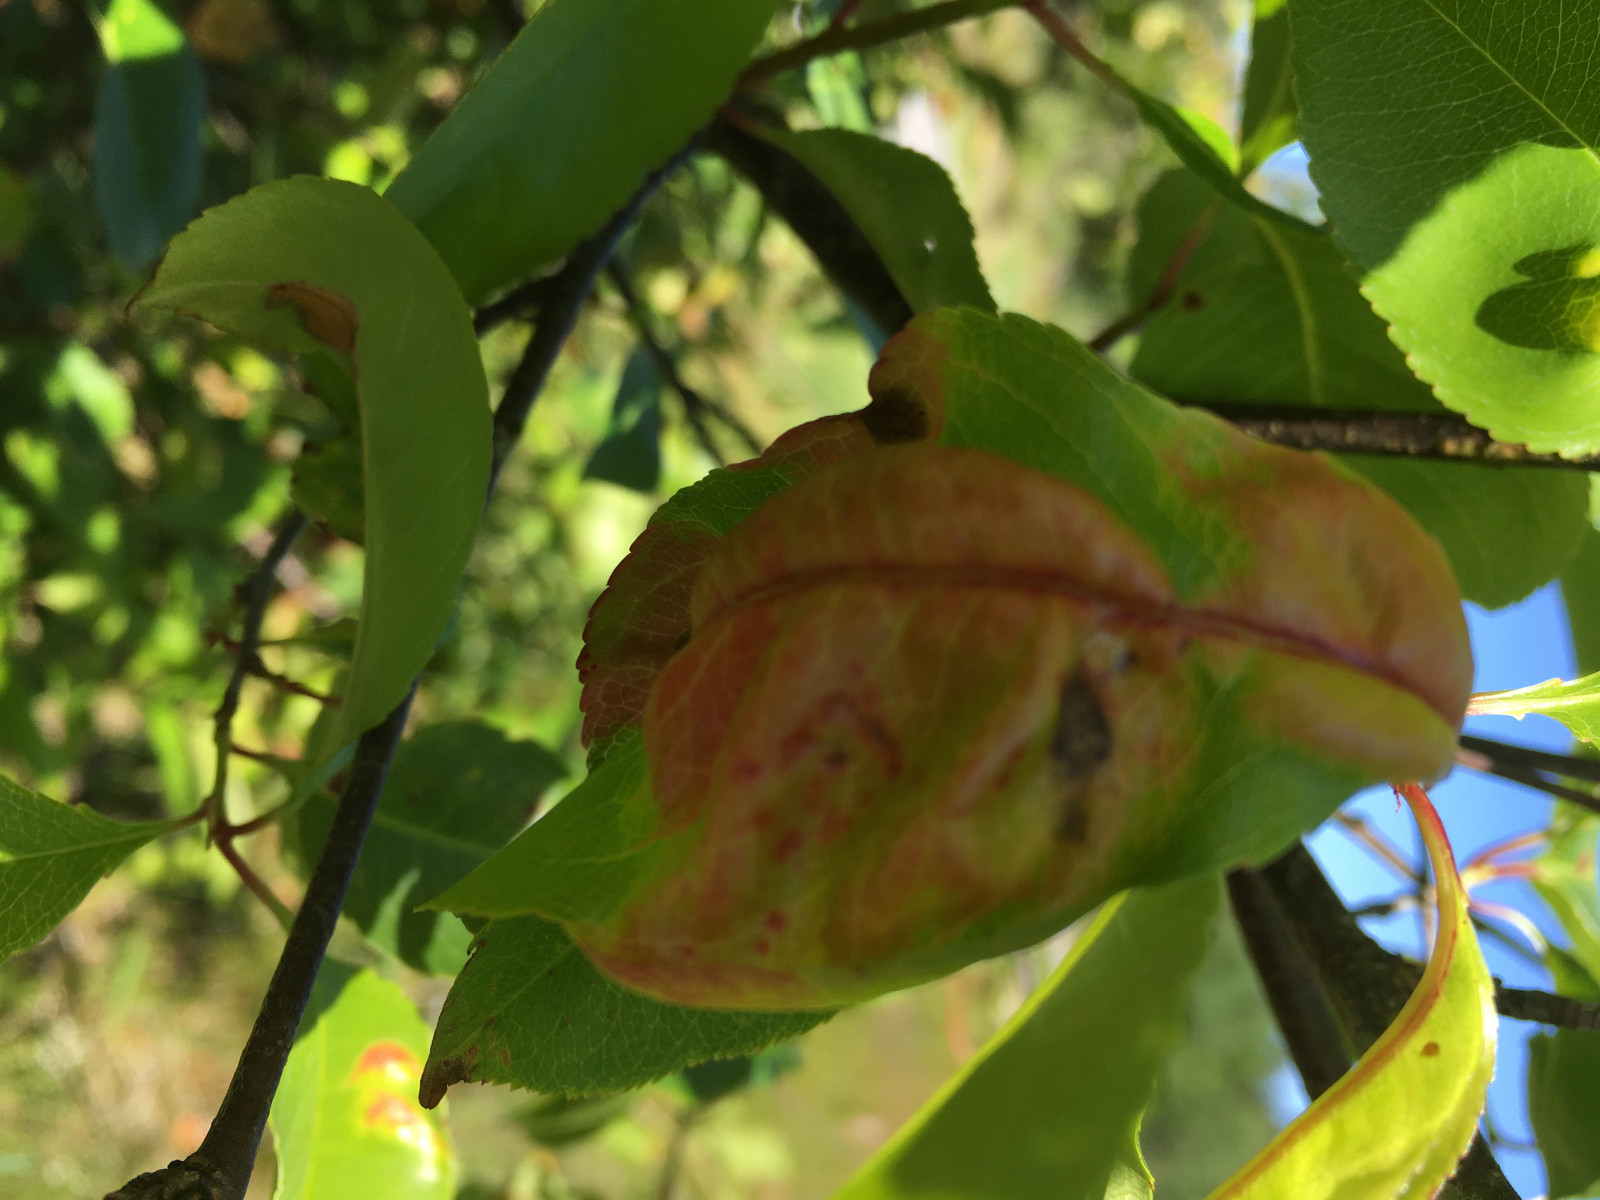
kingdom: Fungi
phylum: Ascomycota
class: Taphrinomycetes
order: Taphrinales
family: Taphrinaceae
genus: Taphrina
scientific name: Taphrina farlowii
